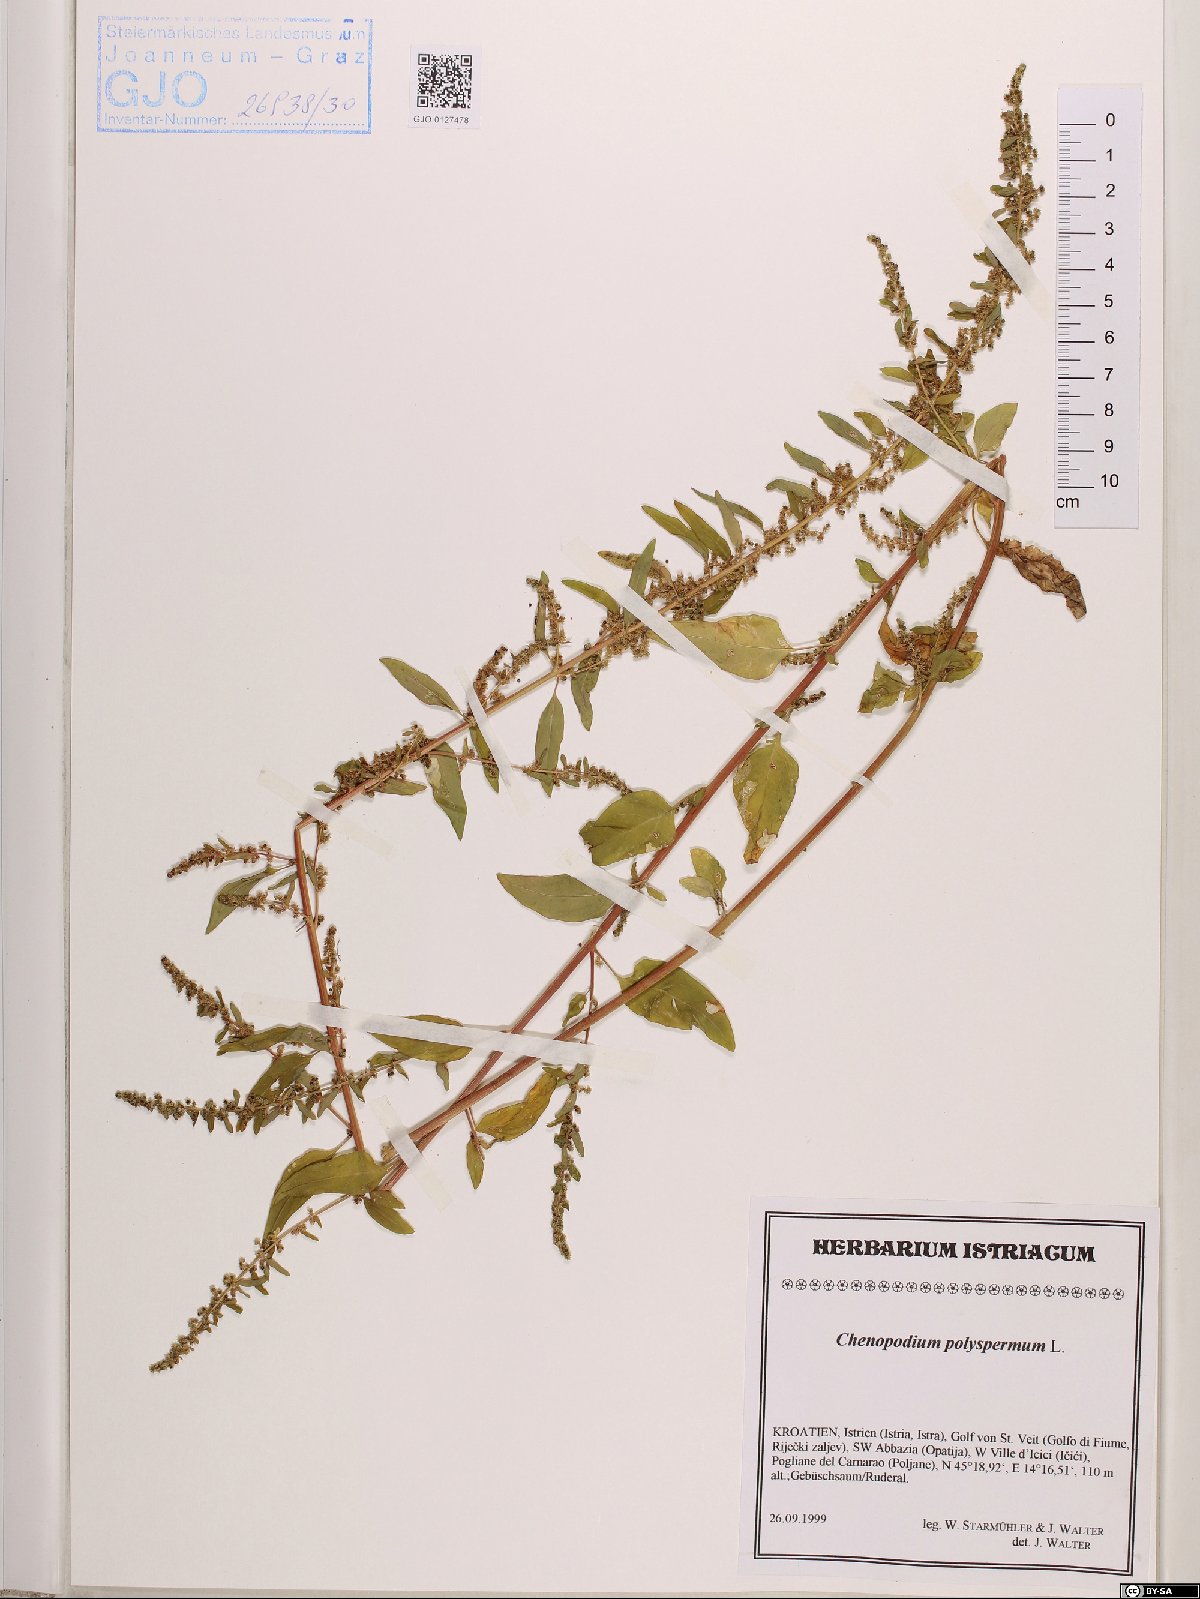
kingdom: Plantae
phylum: Tracheophyta
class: Magnoliopsida
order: Caryophyllales
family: Amaranthaceae
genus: Lipandra
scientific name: Lipandra polysperma
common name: Many-seed goosefoot
